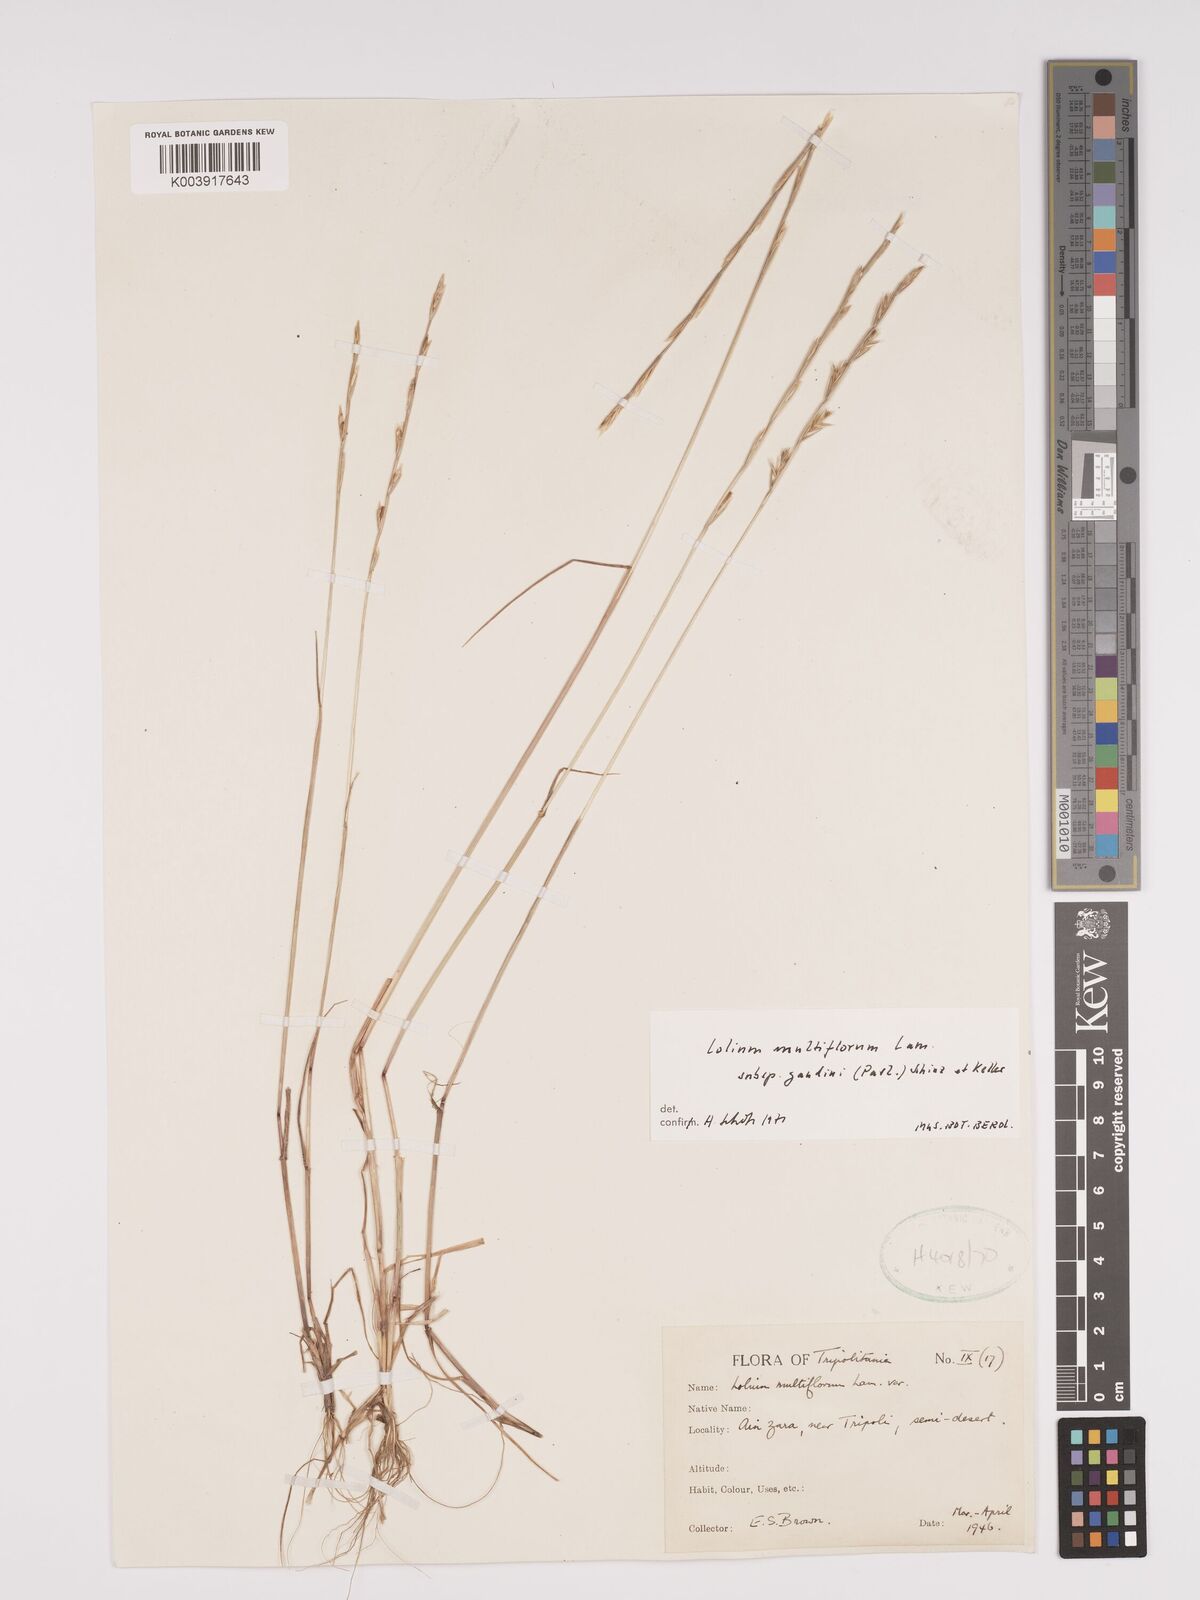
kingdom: Plantae
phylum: Tracheophyta
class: Liliopsida
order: Poales
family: Poaceae
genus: Lolium
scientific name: Lolium multiflorum
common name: Annual ryegrass
